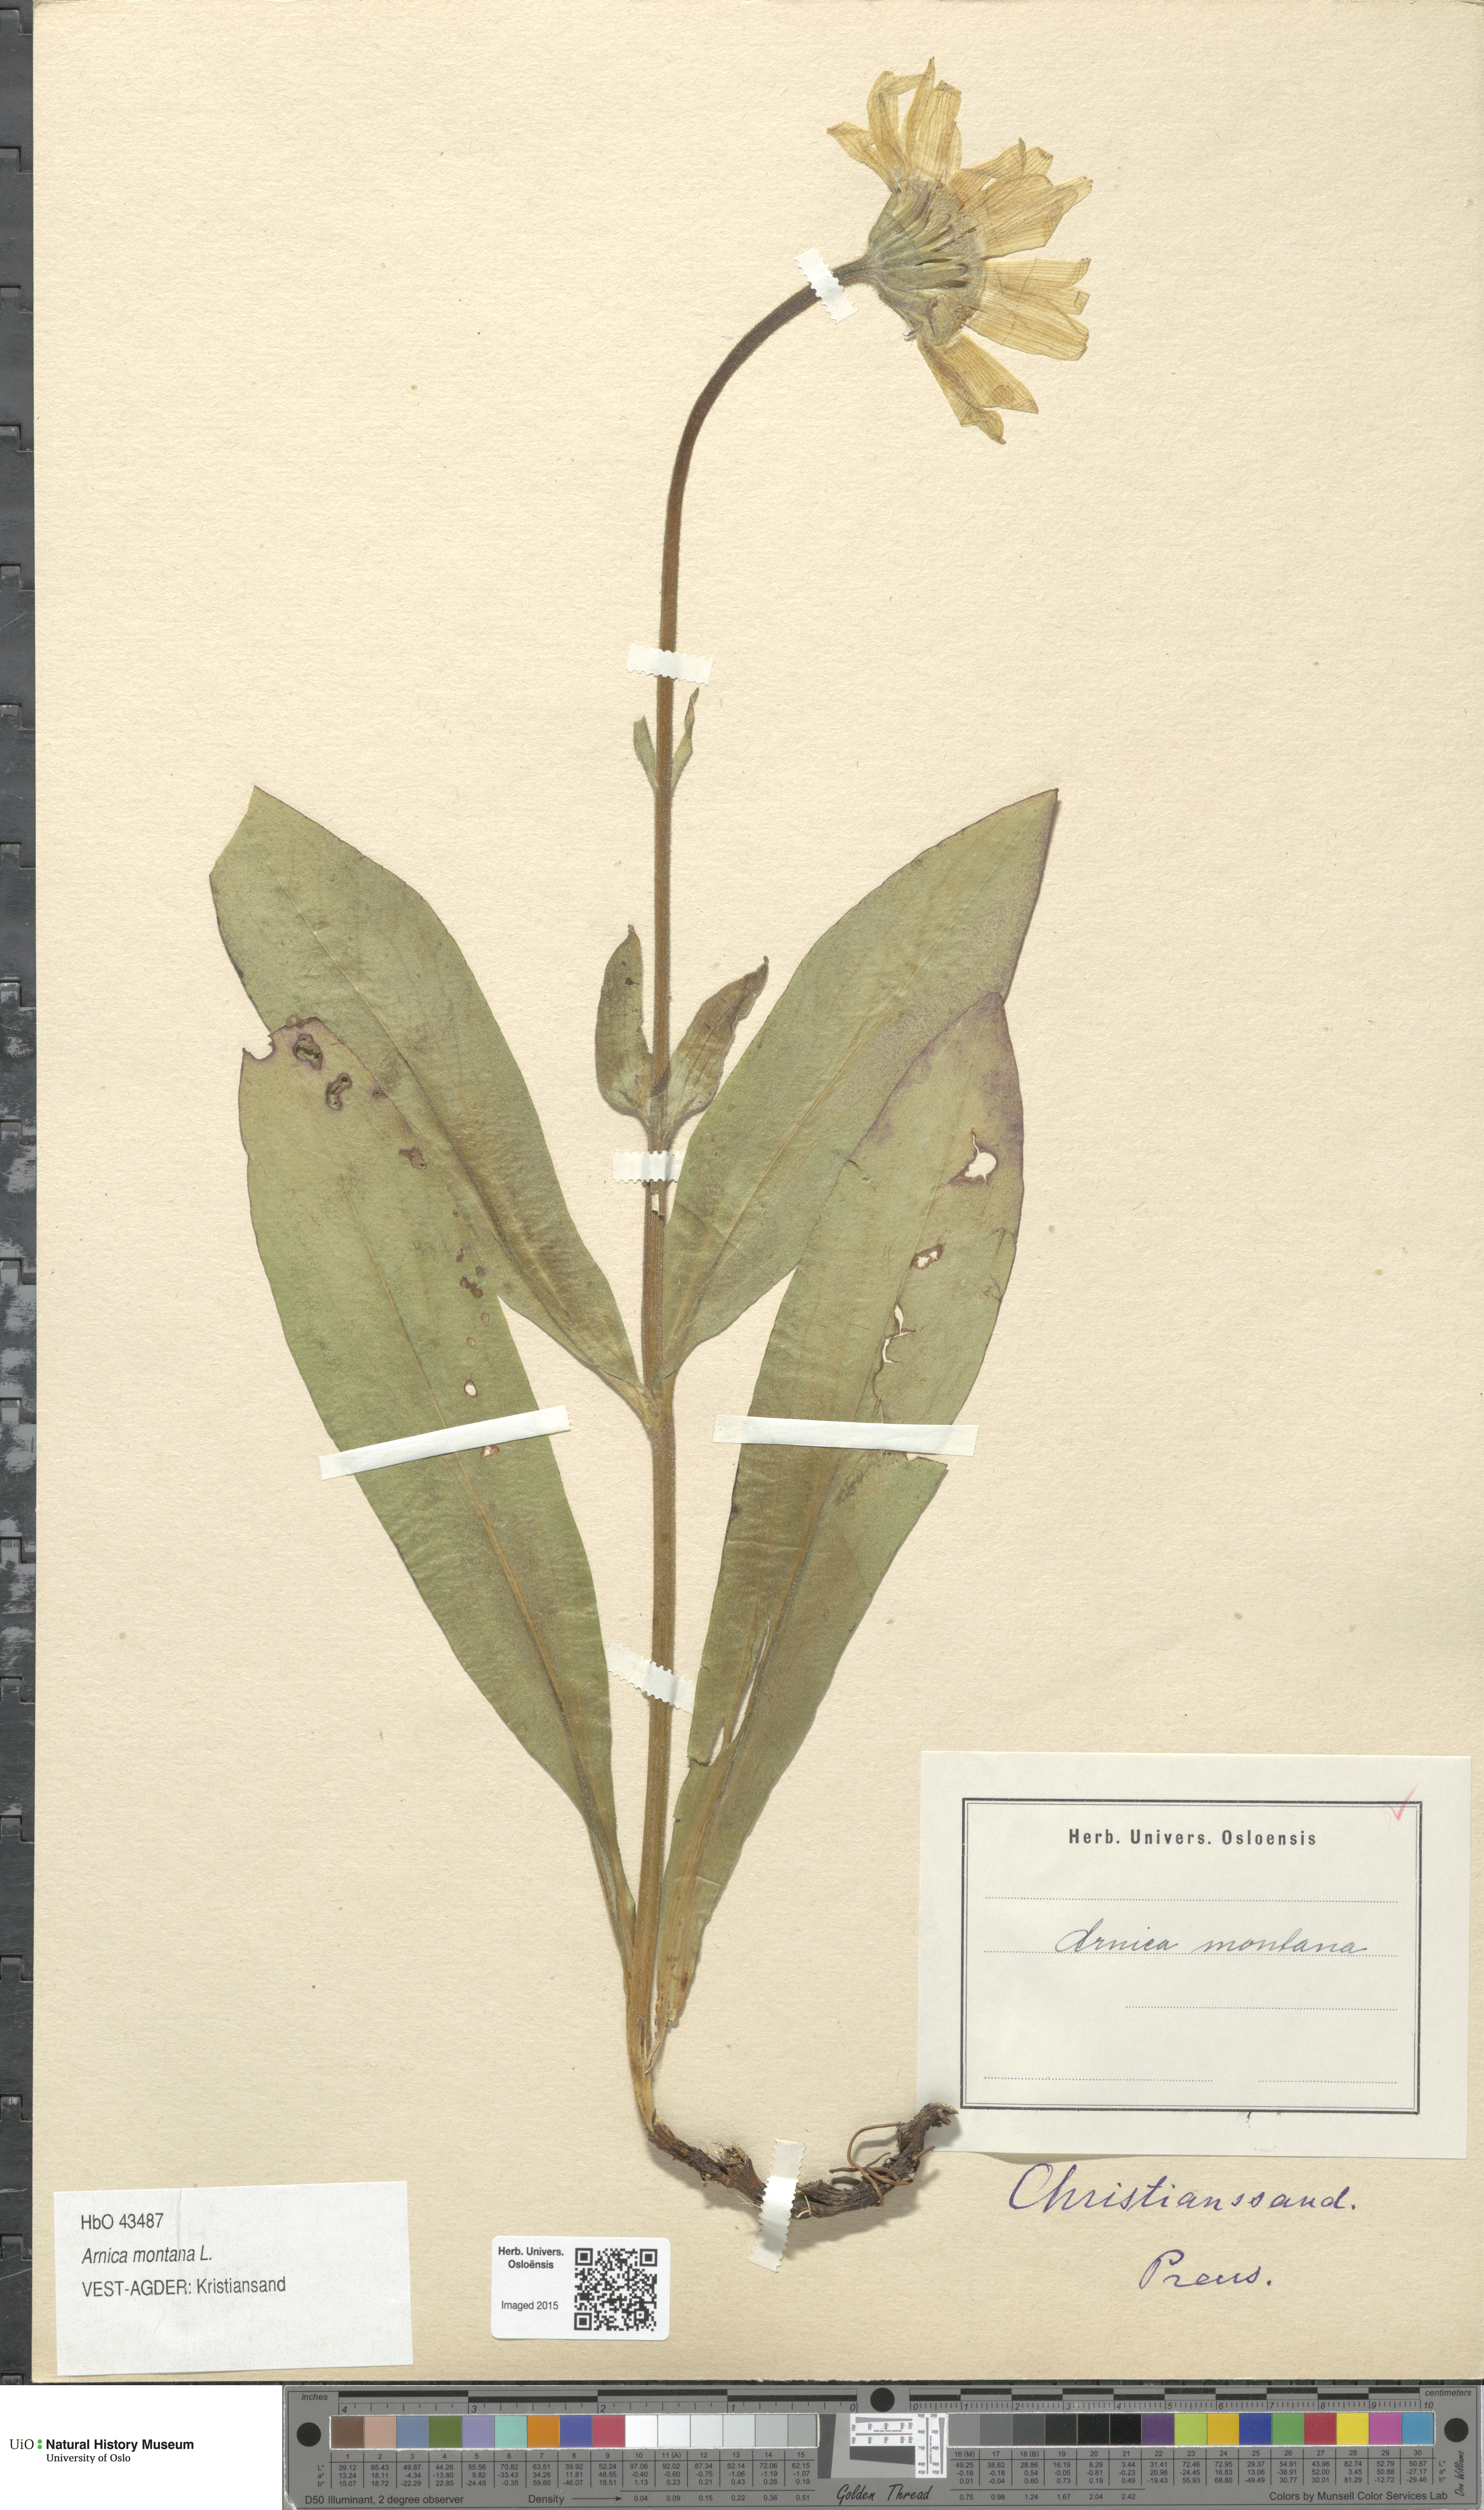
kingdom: Plantae
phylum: Tracheophyta
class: Magnoliopsida
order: Asterales
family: Asteraceae
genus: Arnica
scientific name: Arnica montana
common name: Leopard's bane
